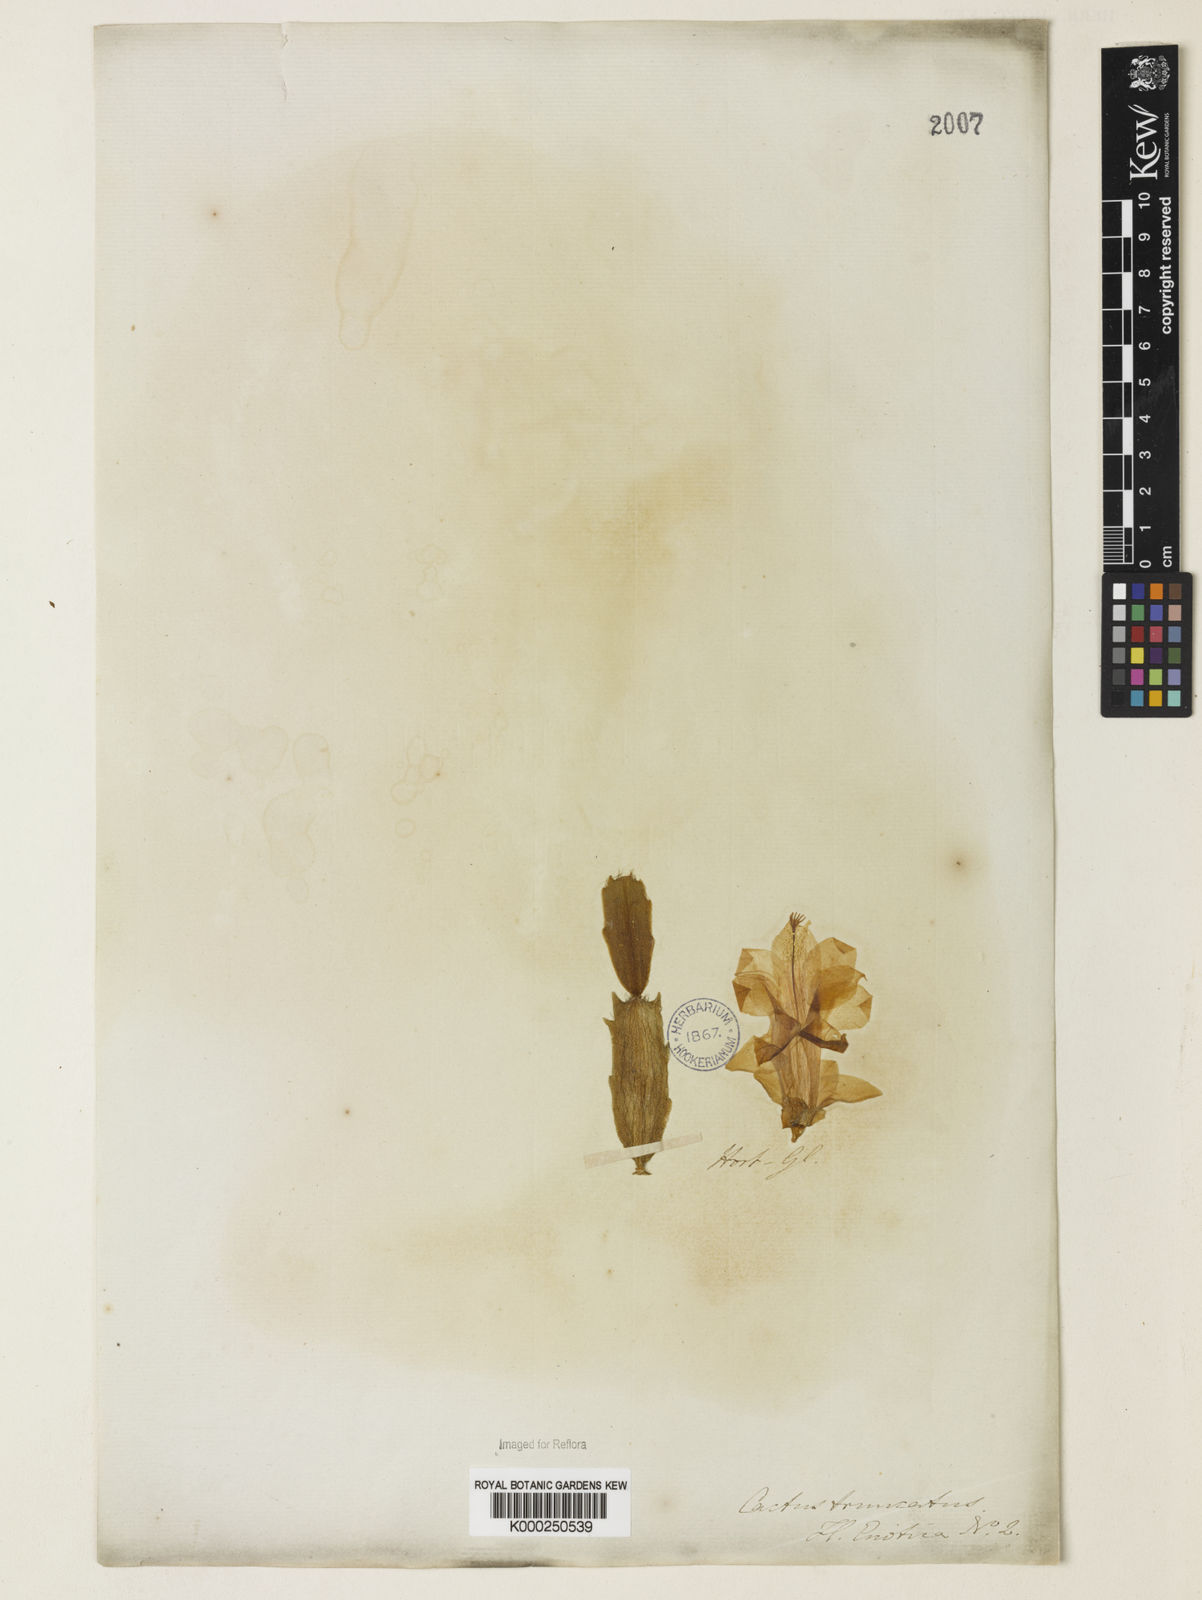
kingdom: Plantae
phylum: Tracheophyta
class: Magnoliopsida
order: Caryophyllales
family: Cactaceae
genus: Schlumbergera
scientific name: Schlumbergera truncata
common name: Thanksgiving cactus
